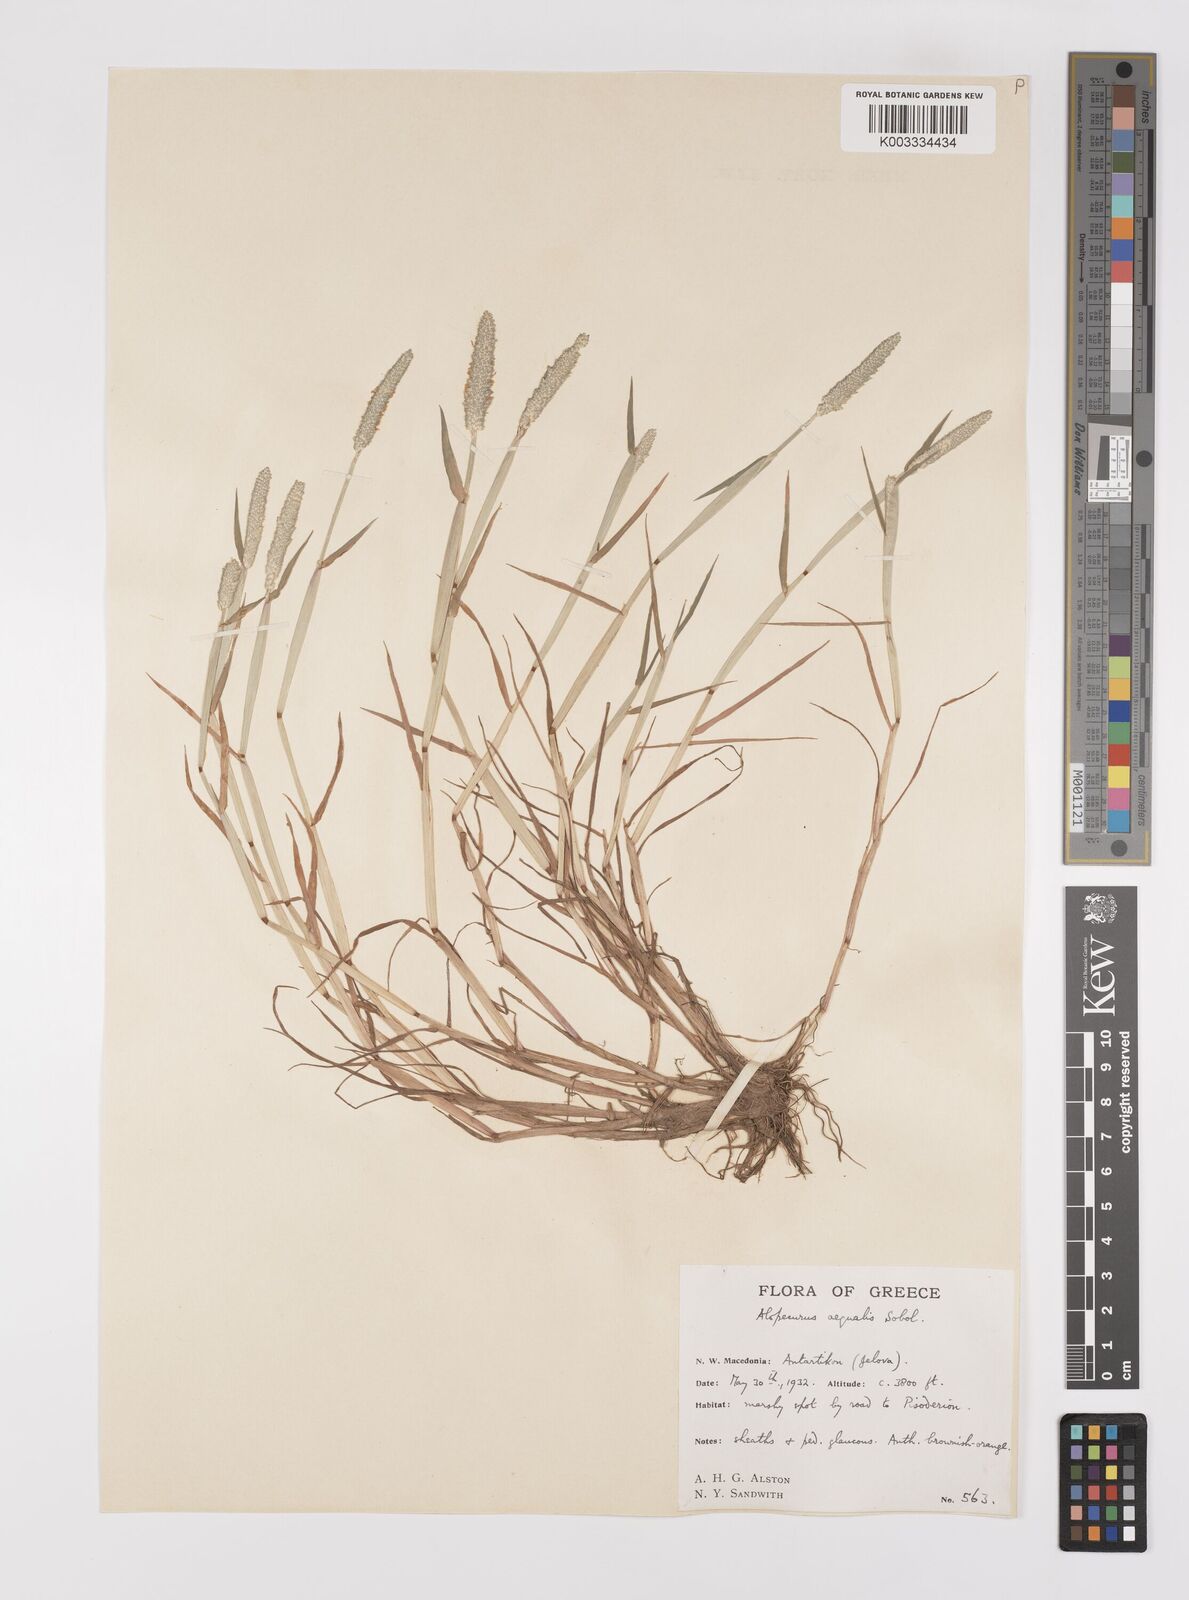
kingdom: Plantae
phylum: Tracheophyta
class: Liliopsida
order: Poales
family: Poaceae
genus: Alopecurus
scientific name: Alopecurus aequalis
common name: Orange foxtail
